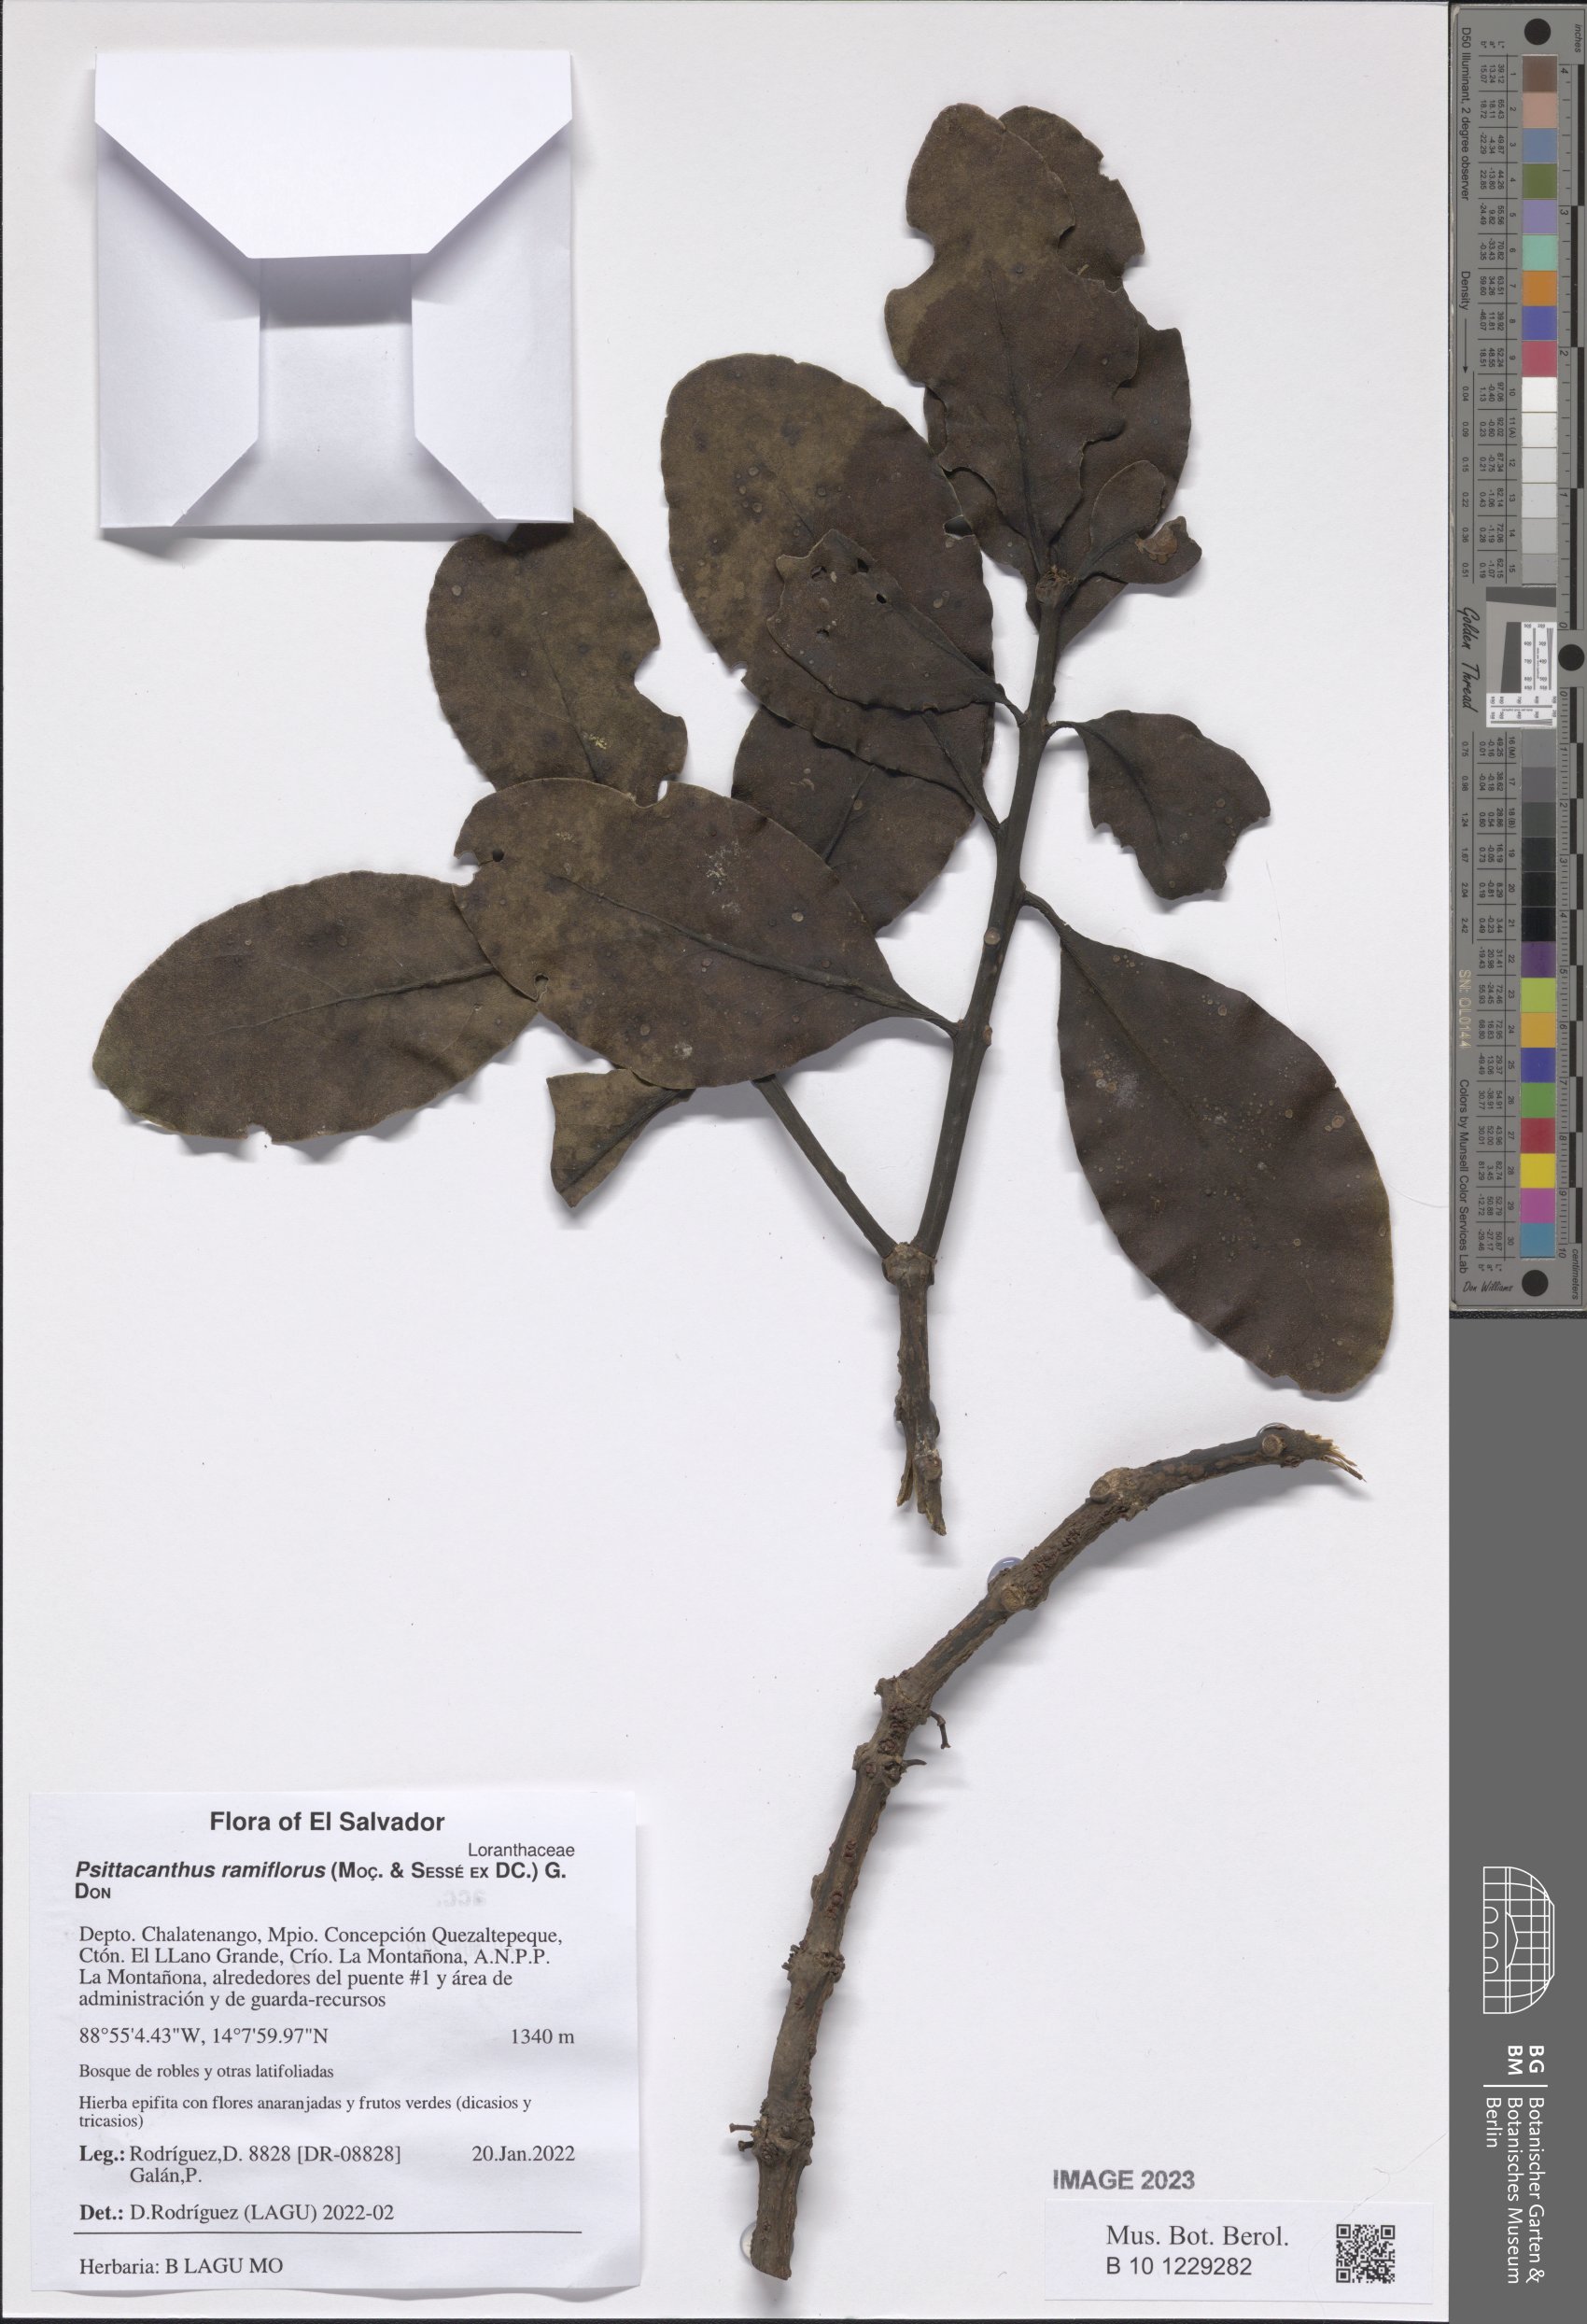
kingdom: Plantae
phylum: Tracheophyta
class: Magnoliopsida
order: Santalales
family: Loranthaceae
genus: Psittacanthus
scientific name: Psittacanthus ramiflorus
